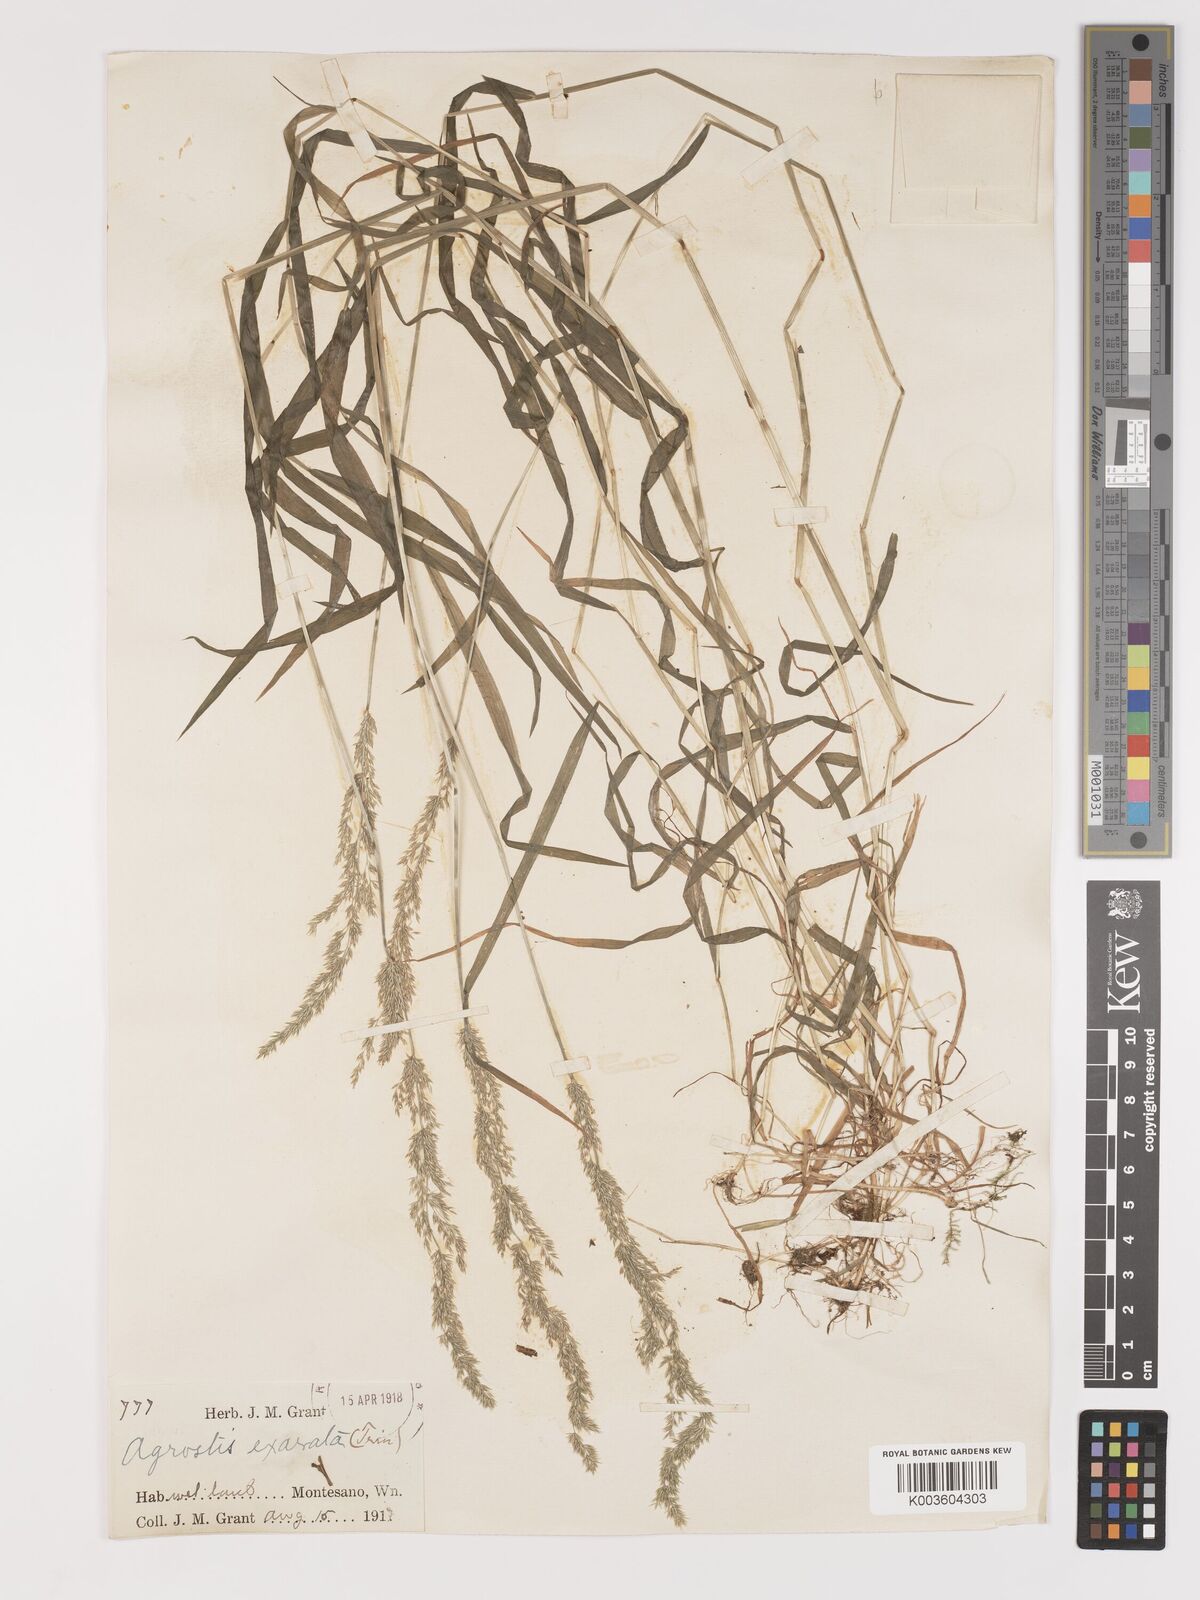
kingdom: Plantae
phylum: Tracheophyta
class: Liliopsida
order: Poales
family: Poaceae
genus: Agrostis
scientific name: Agrostis exarata
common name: Spike bent
